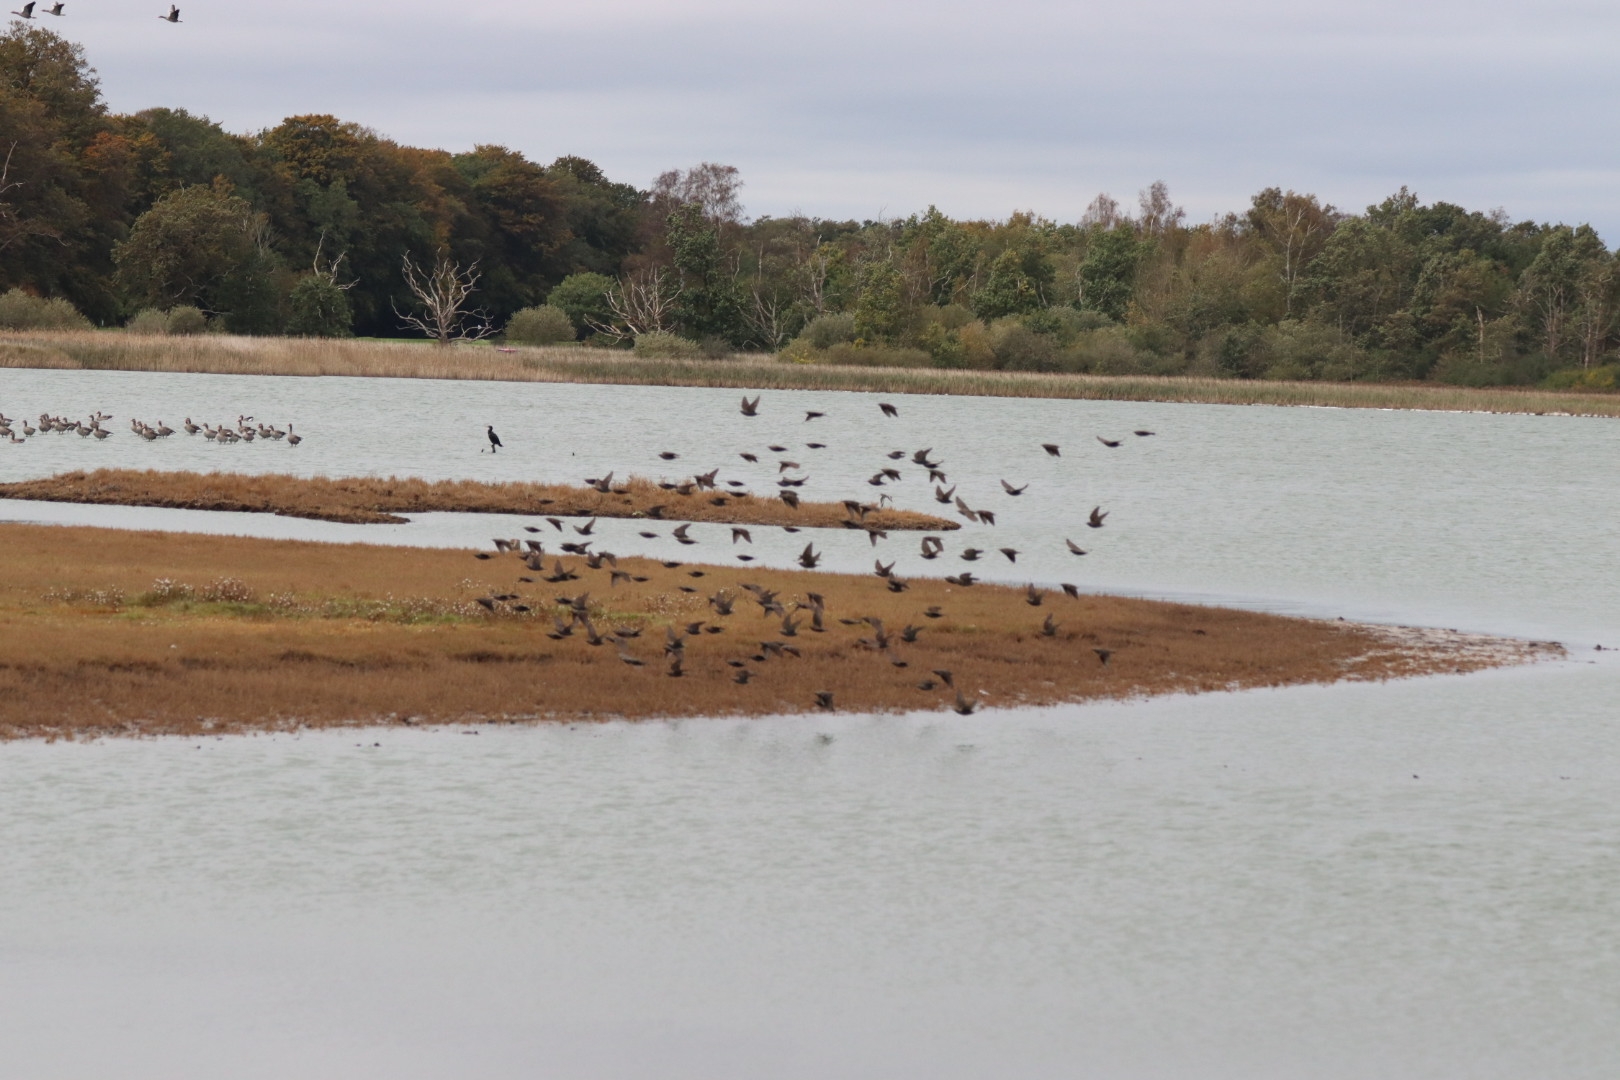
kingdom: Animalia
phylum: Chordata
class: Aves
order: Passeriformes
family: Sturnidae
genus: Sturnus
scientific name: Sturnus vulgaris
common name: Stær
